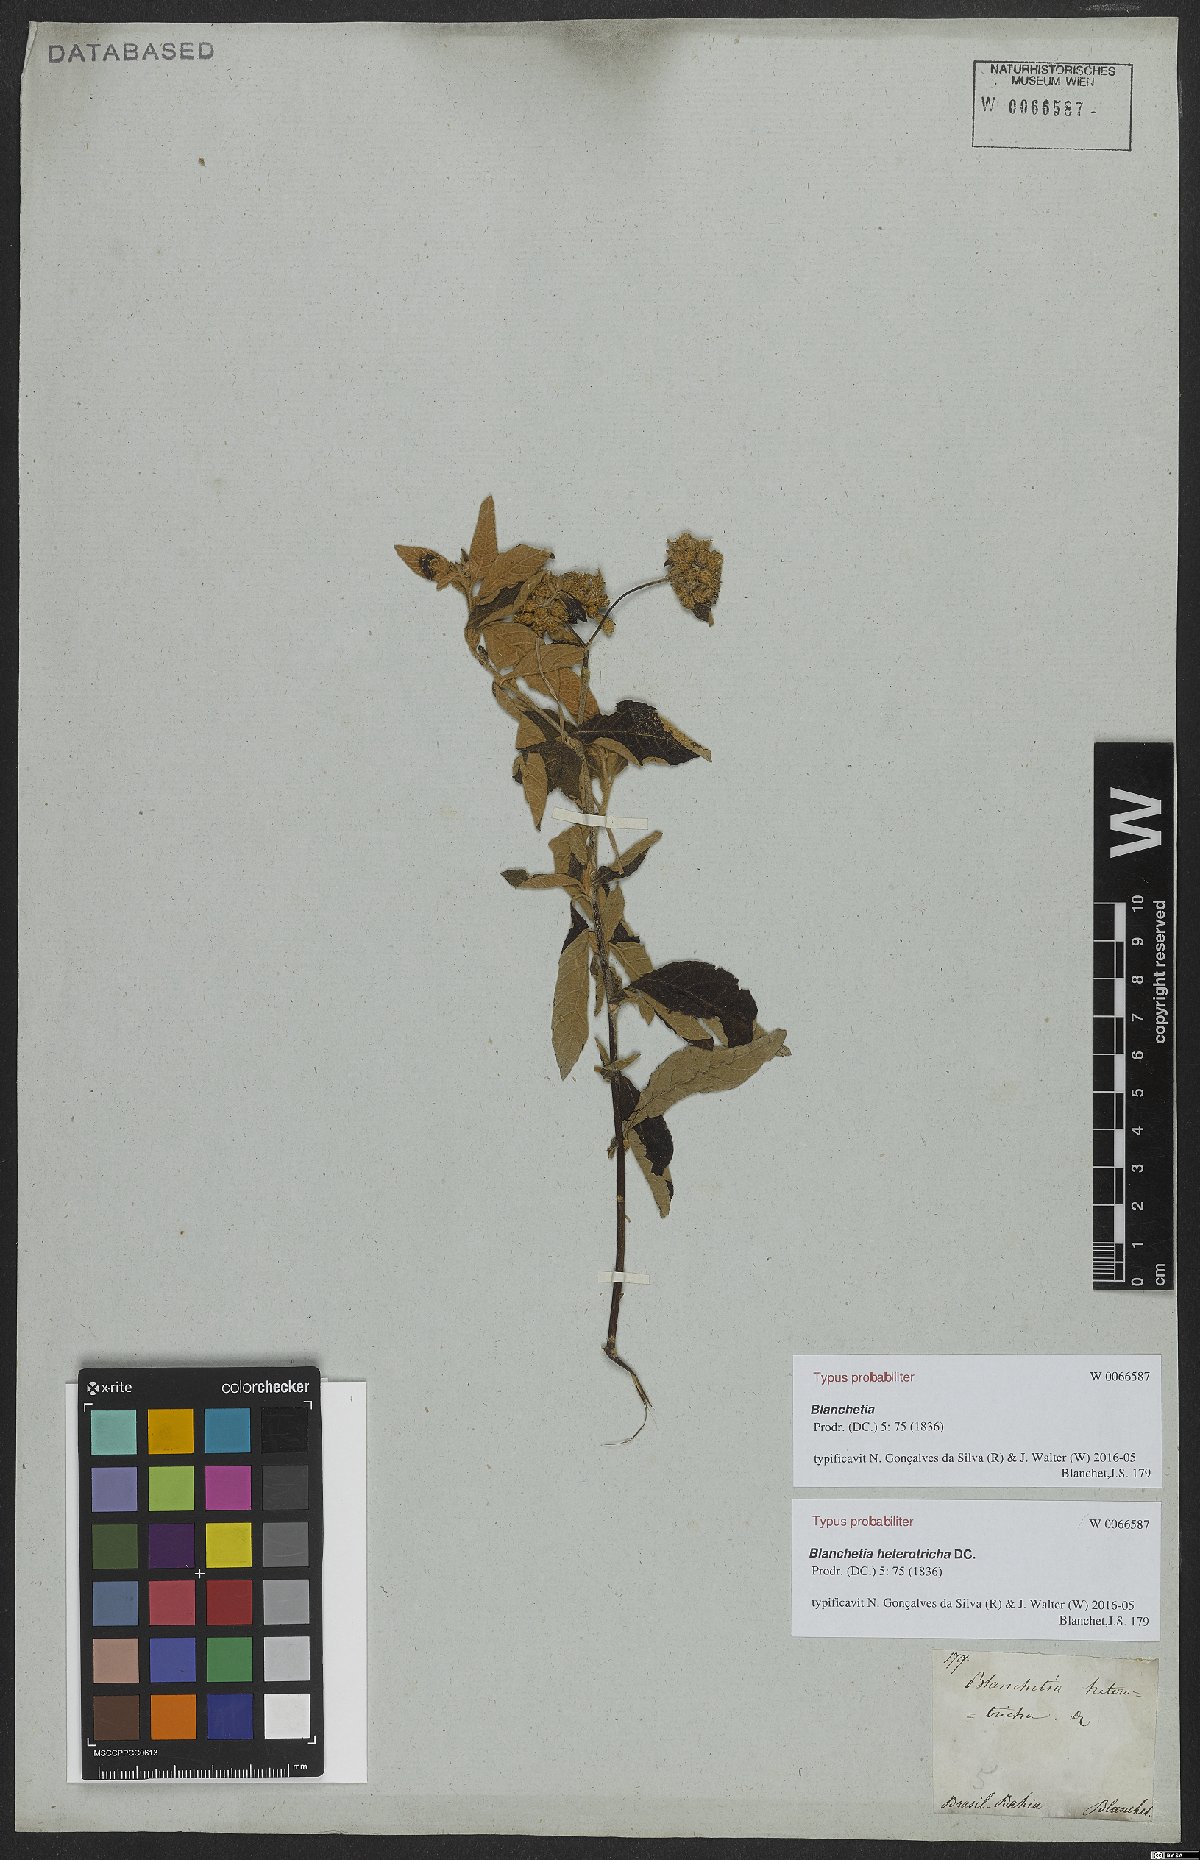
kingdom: Plantae
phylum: Tracheophyta
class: Magnoliopsida
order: Asterales
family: Asteraceae
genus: Blanchetia
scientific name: Blanchetia heterotricha
